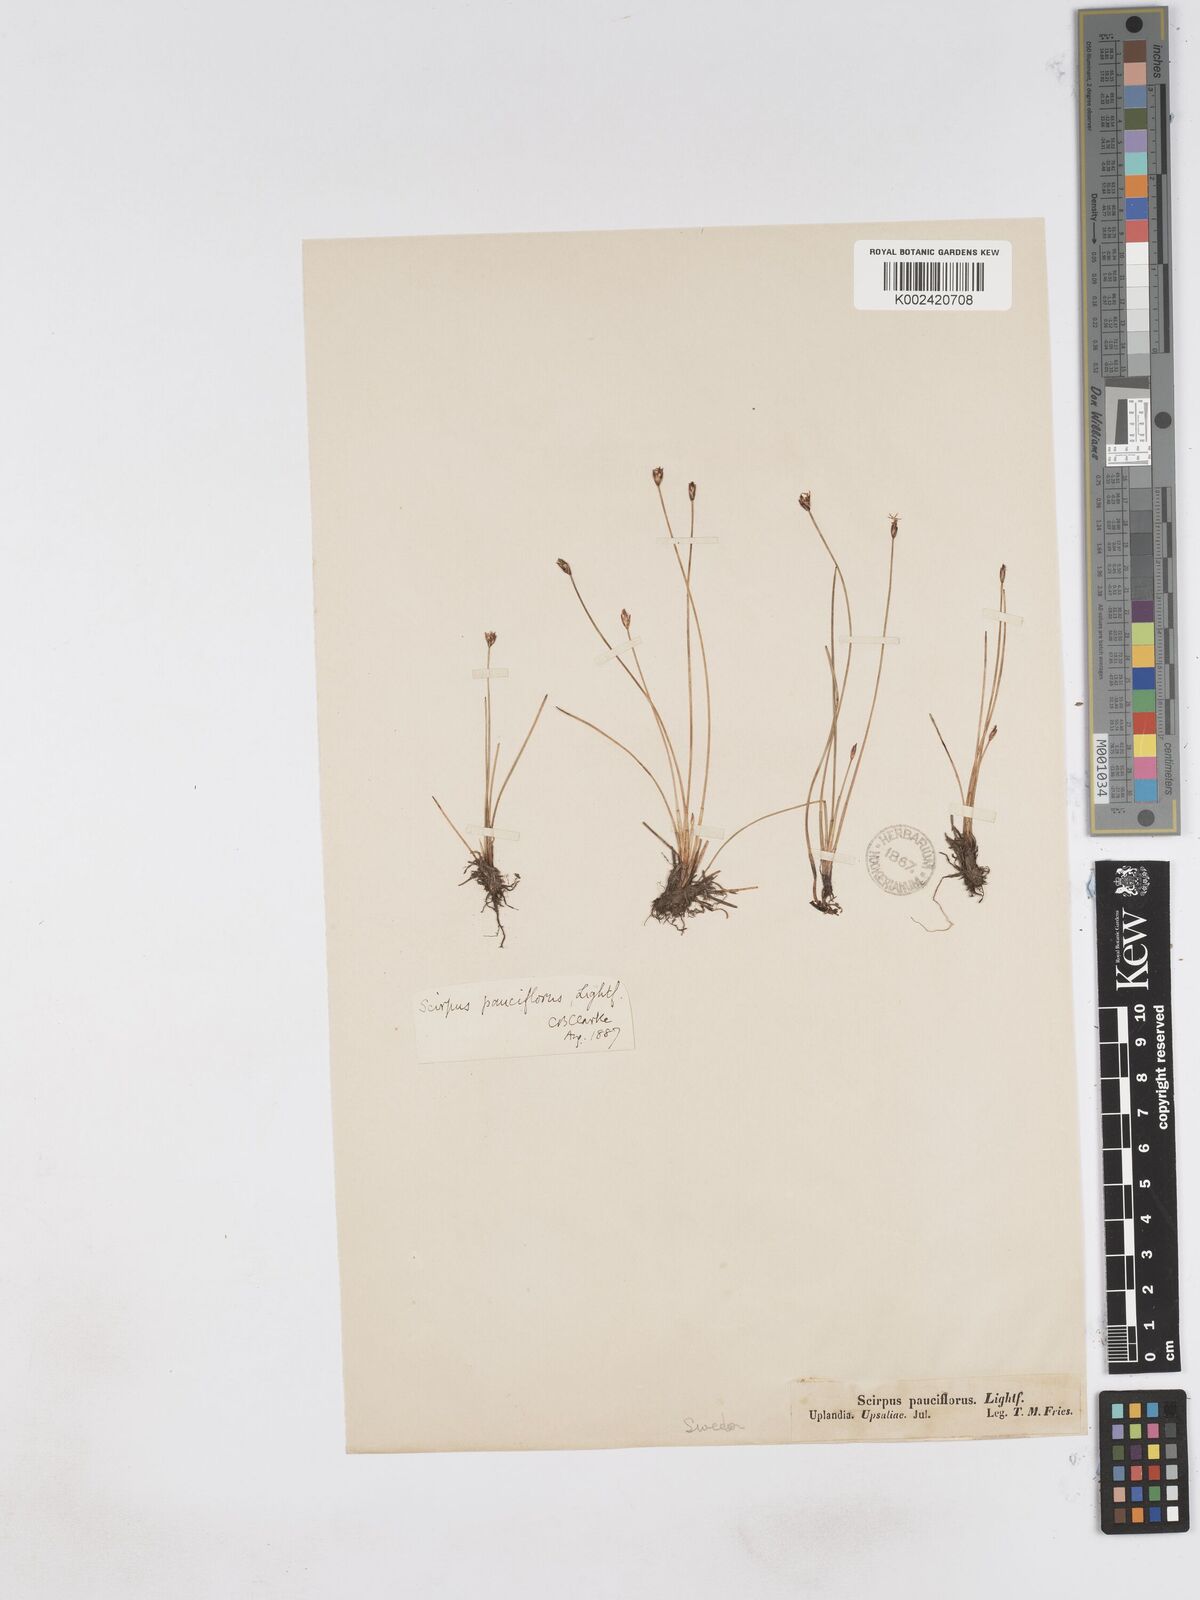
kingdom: Plantae
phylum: Tracheophyta
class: Liliopsida
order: Poales
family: Cyperaceae
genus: Eleocharis
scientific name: Eleocharis quinqueflora
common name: Few-flowered spike-rush
